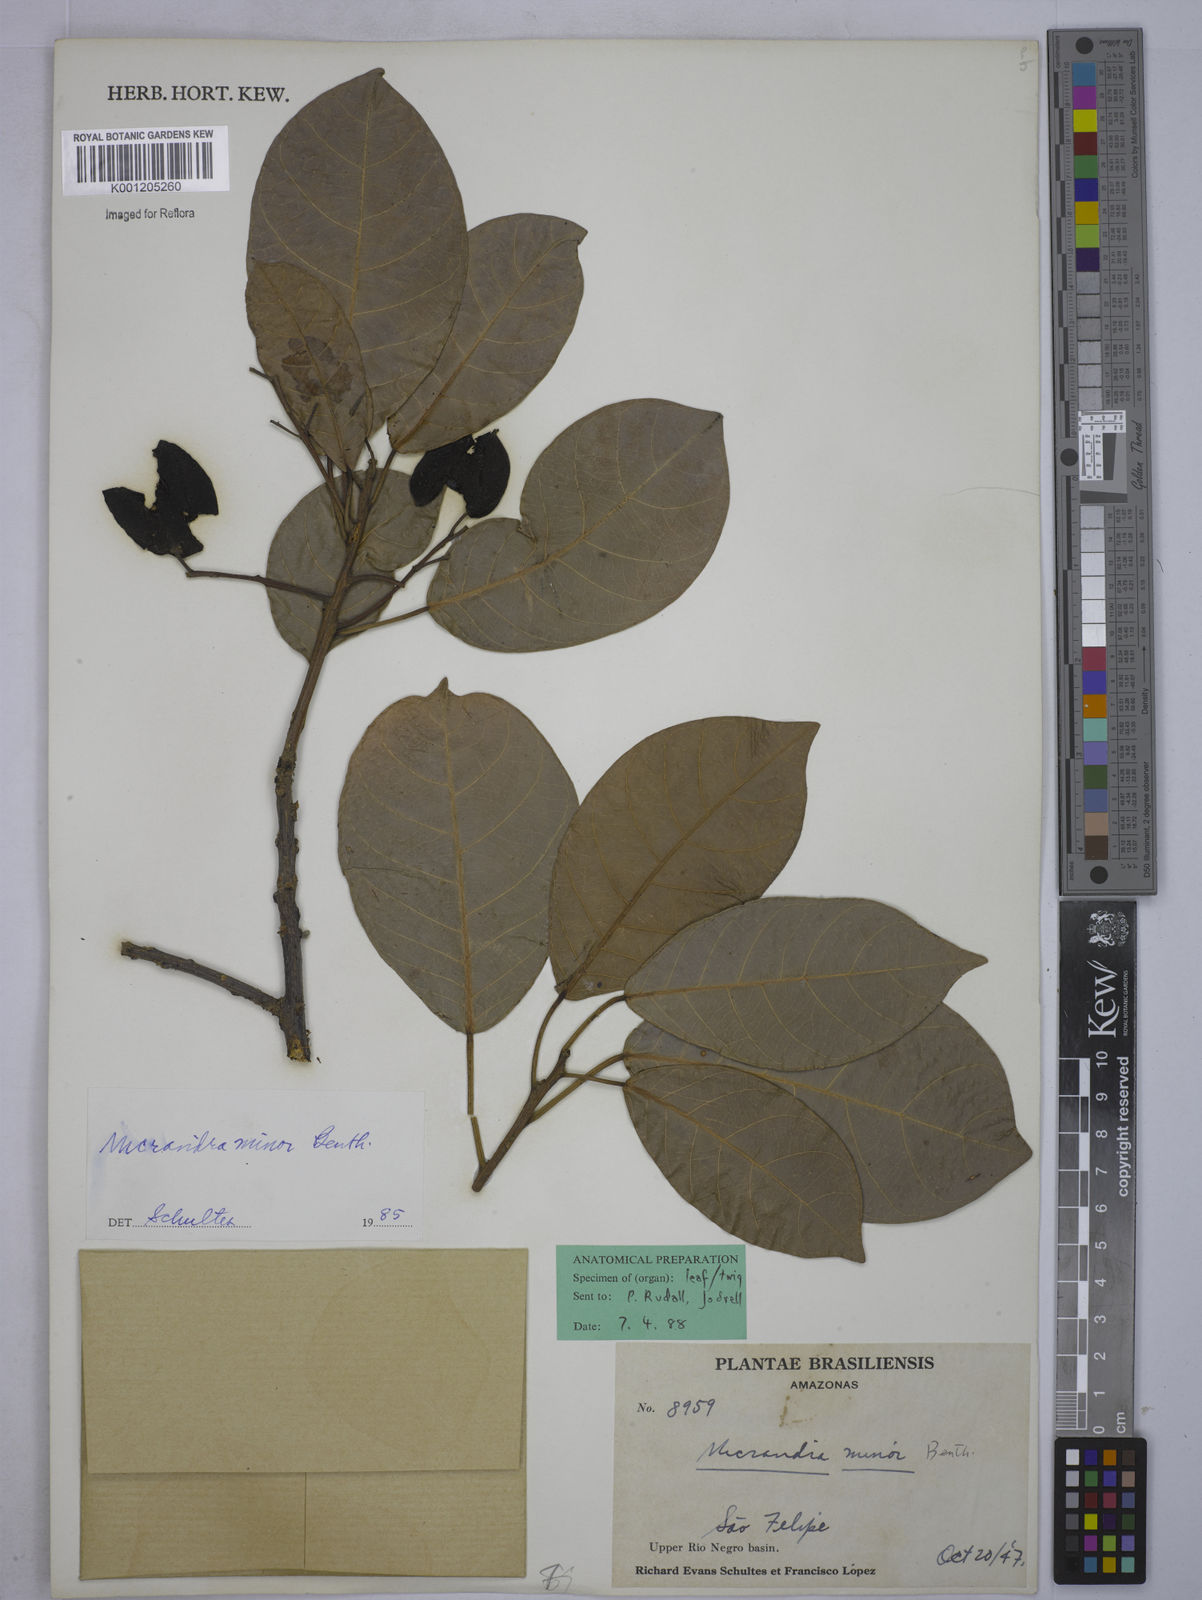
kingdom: Plantae
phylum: Tracheophyta
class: Magnoliopsida
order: Malpighiales
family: Euphorbiaceae
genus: Micrandra
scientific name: Micrandra minor
